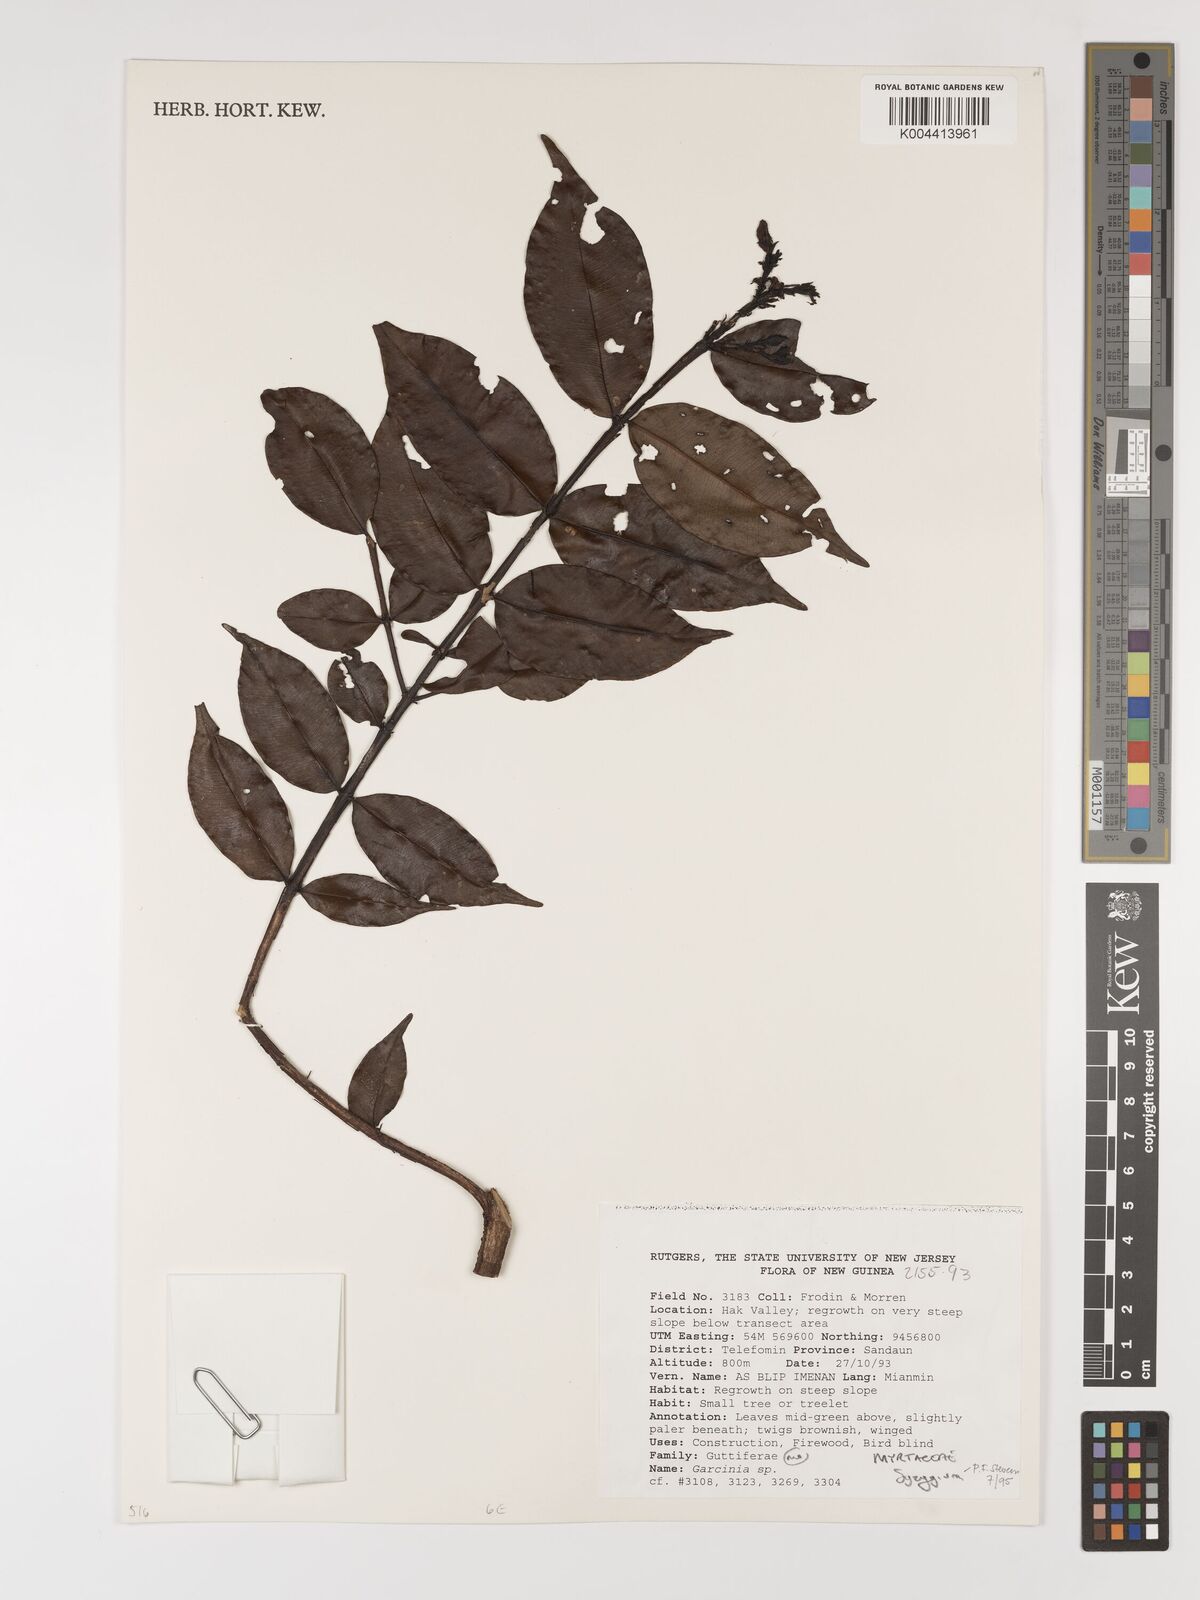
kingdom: Plantae
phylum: Tracheophyta
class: Magnoliopsida
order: Myrtales
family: Myrtaceae
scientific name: Myrtaceae
